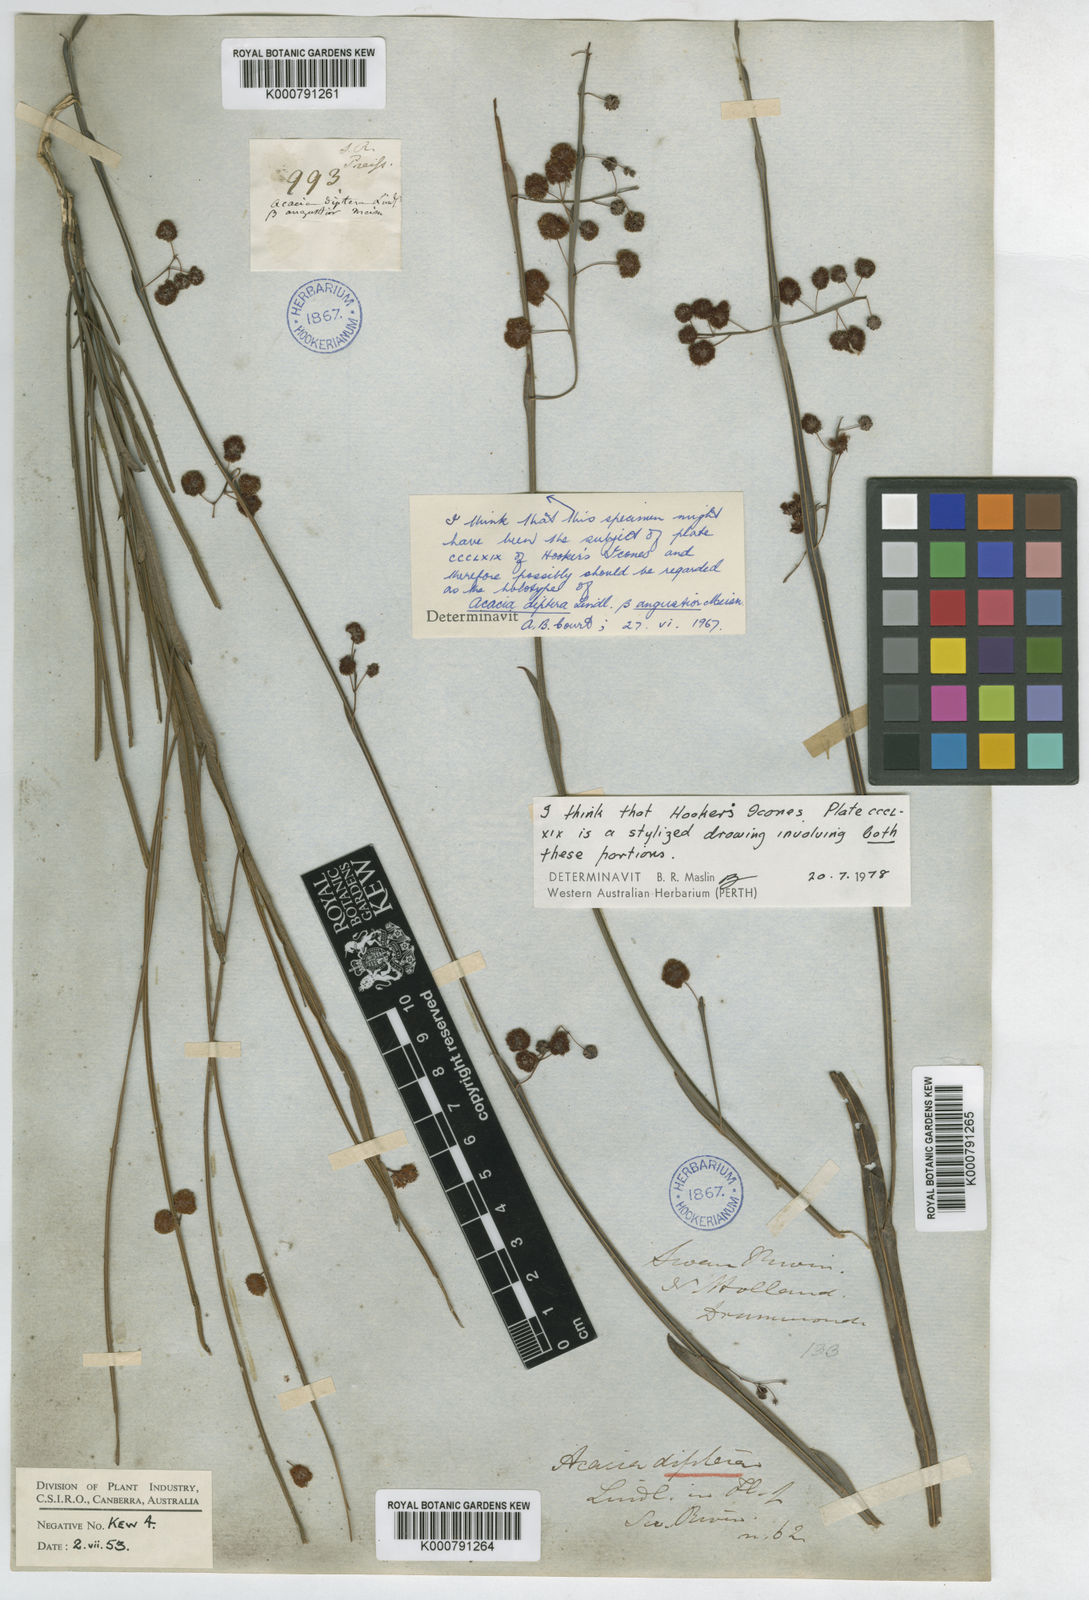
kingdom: Plantae
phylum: Tracheophyta
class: Magnoliopsida
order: Fabales
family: Fabaceae
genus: Acacia
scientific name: Acacia
